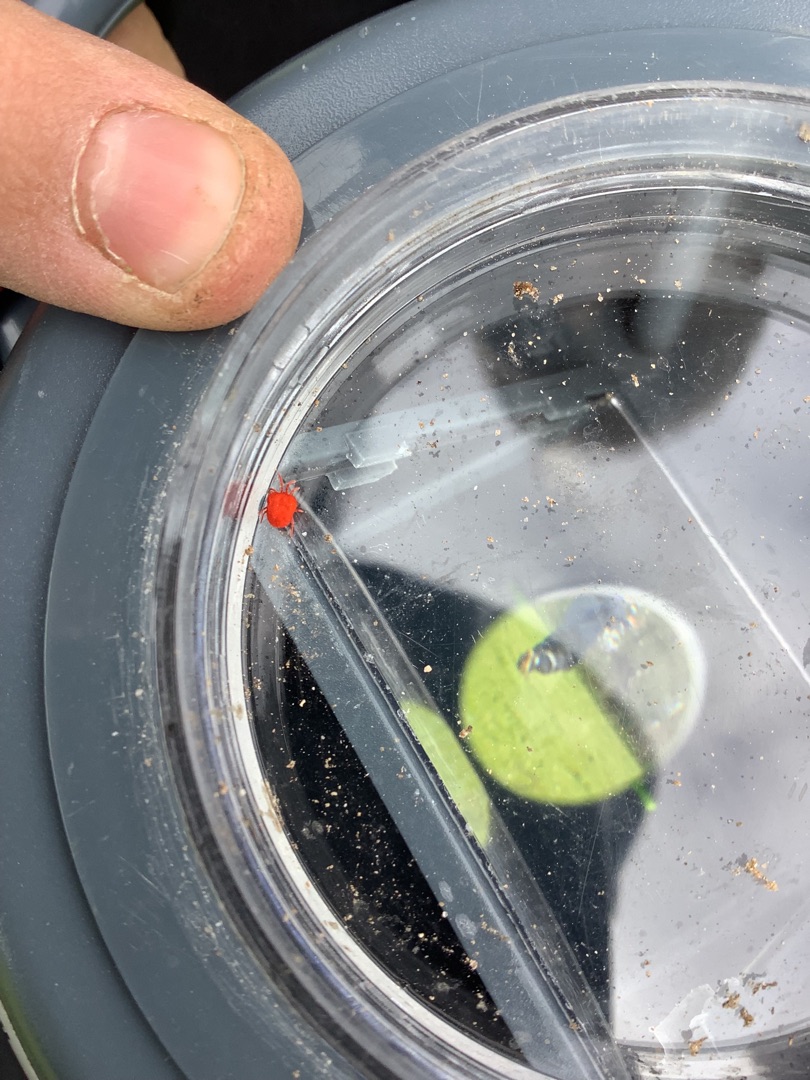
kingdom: Animalia
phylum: Arthropoda
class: Arachnida
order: Trombidiformes
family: Trombidiidae
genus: Trombidium
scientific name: Trombidium
